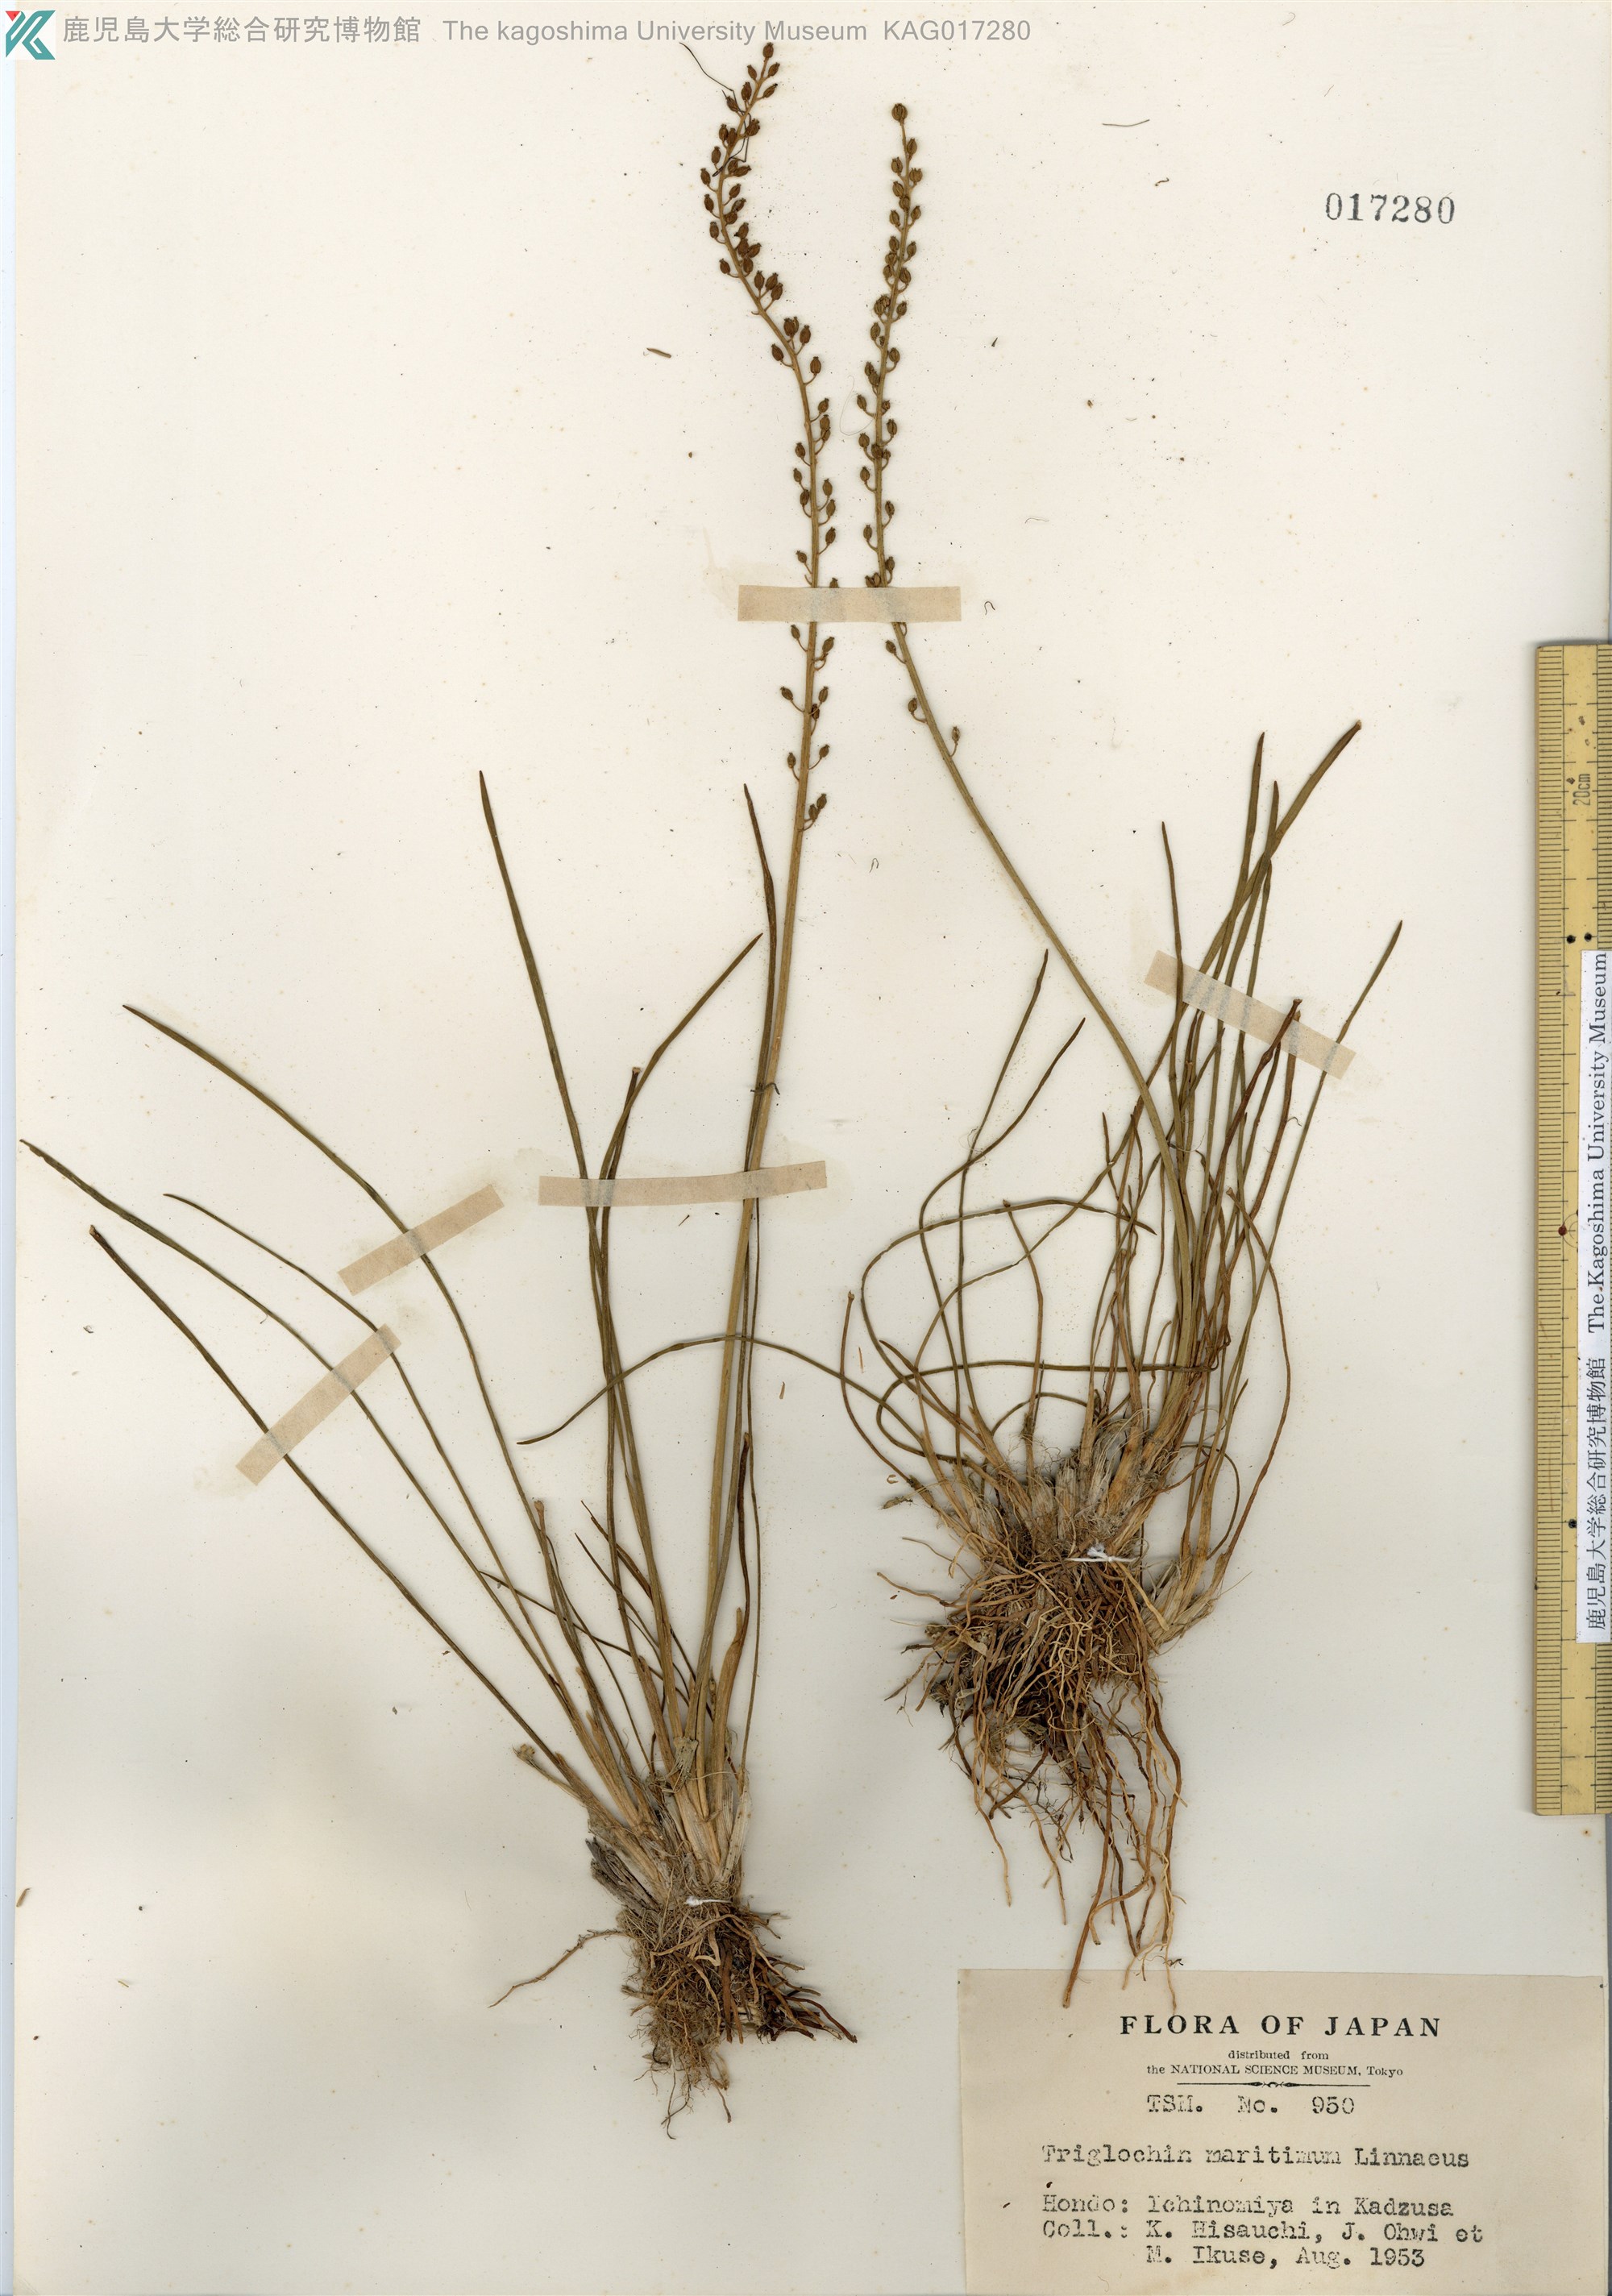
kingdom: Plantae
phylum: Tracheophyta
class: Liliopsida
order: Alismatales
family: Juncaginaceae
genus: Triglochin
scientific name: Triglochin maritima
